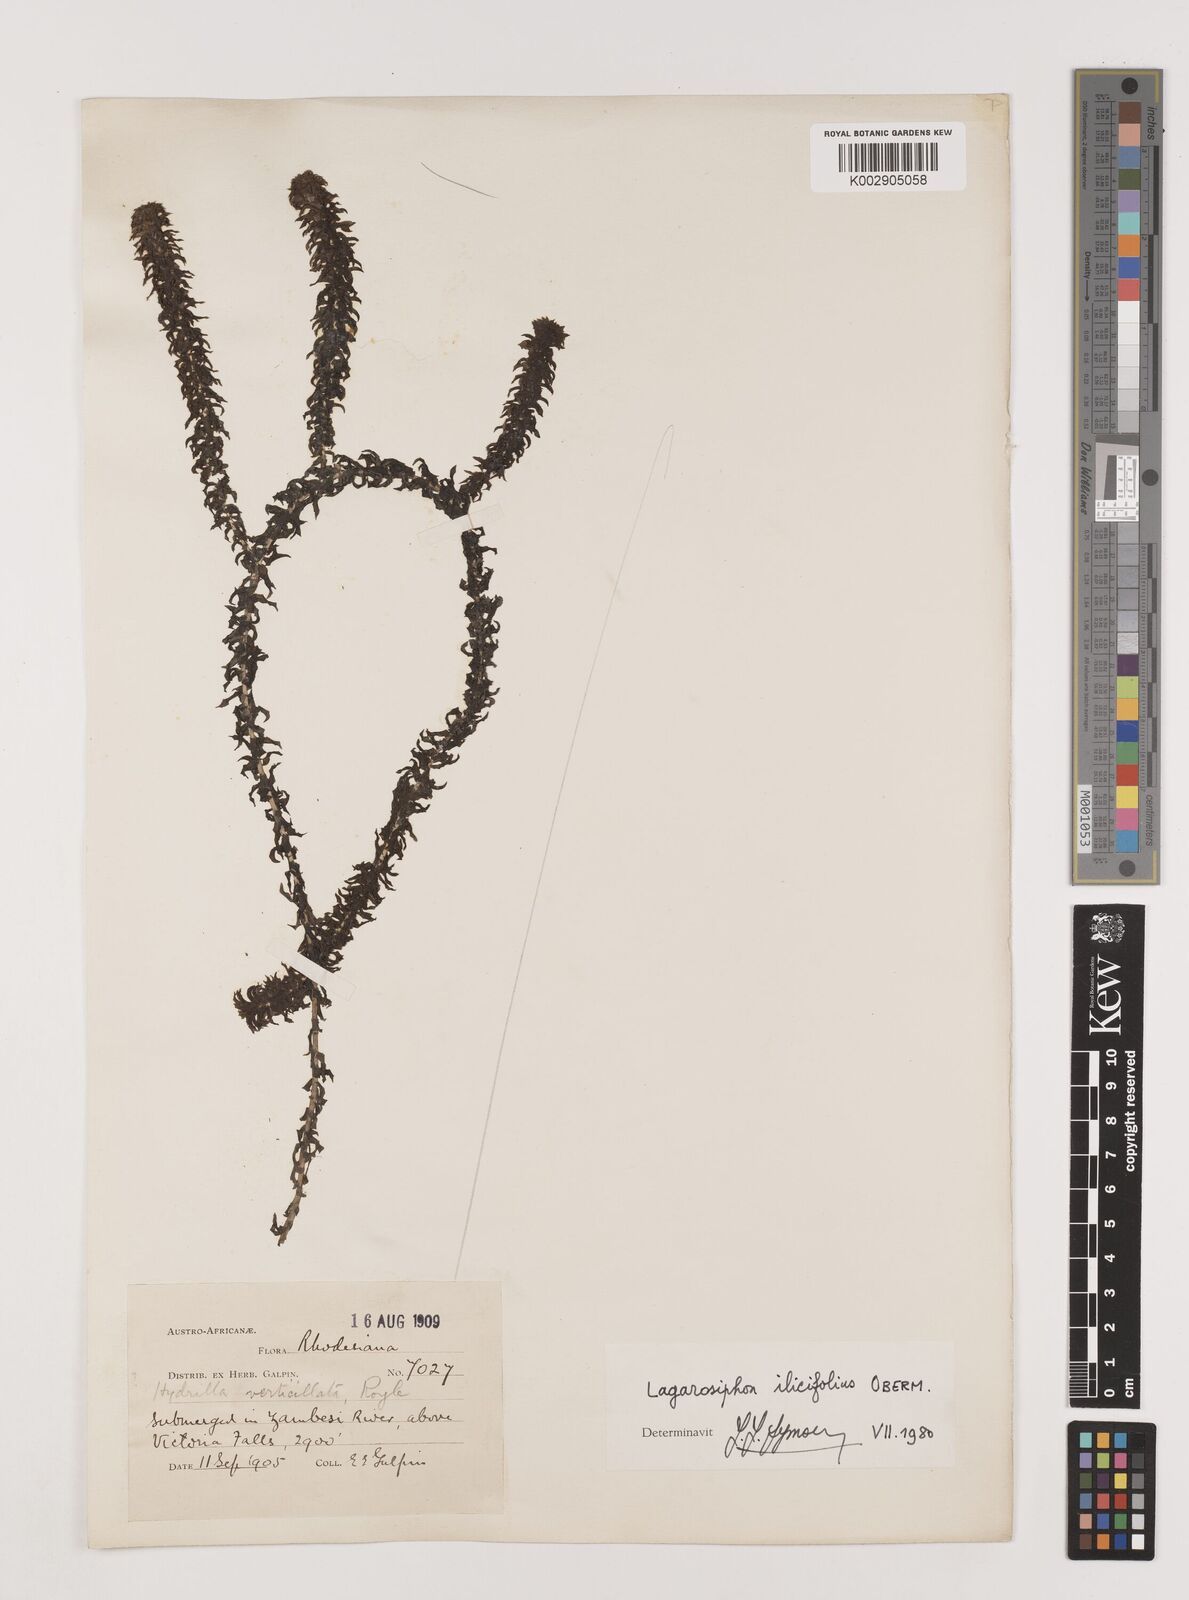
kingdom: Plantae
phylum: Tracheophyta
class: Liliopsida
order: Alismatales
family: Hydrocharitaceae
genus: Lagarosiphon
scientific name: Lagarosiphon ilicifolius
